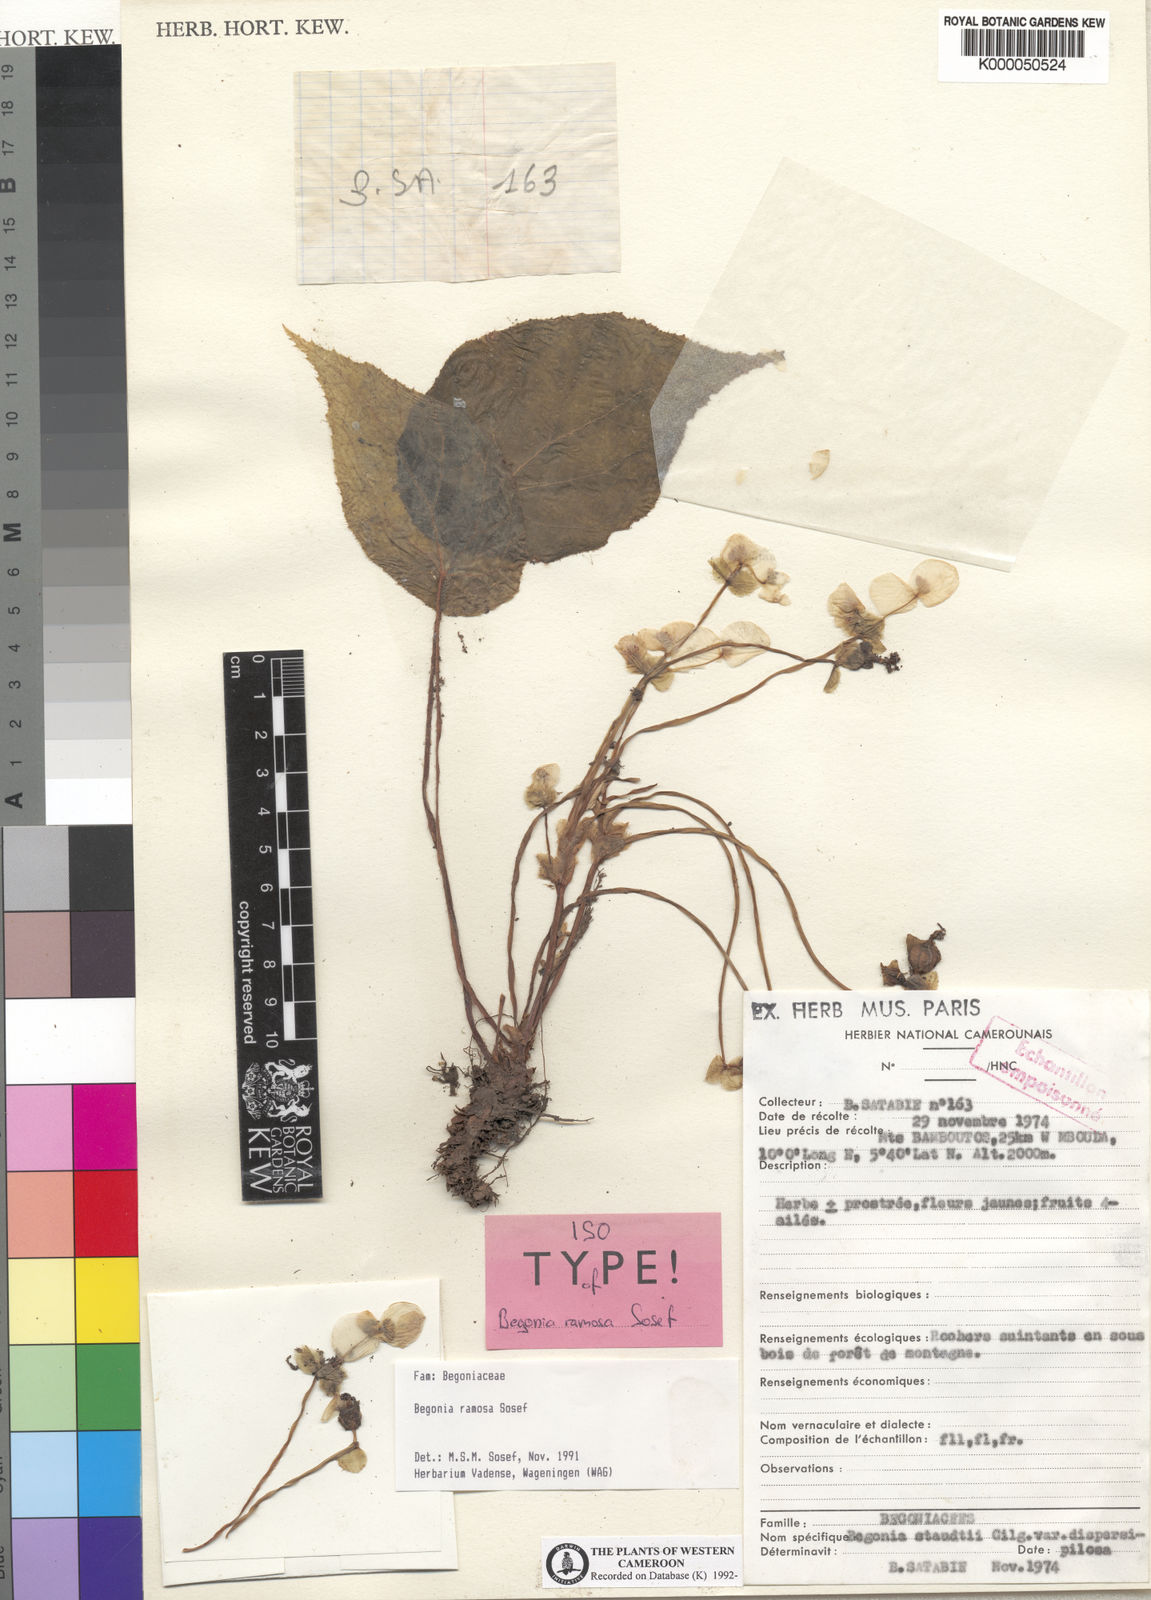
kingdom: Plantae
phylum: Tracheophyta
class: Magnoliopsida
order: Cucurbitales
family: Begoniaceae
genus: Begonia
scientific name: Begonia schaeferi
